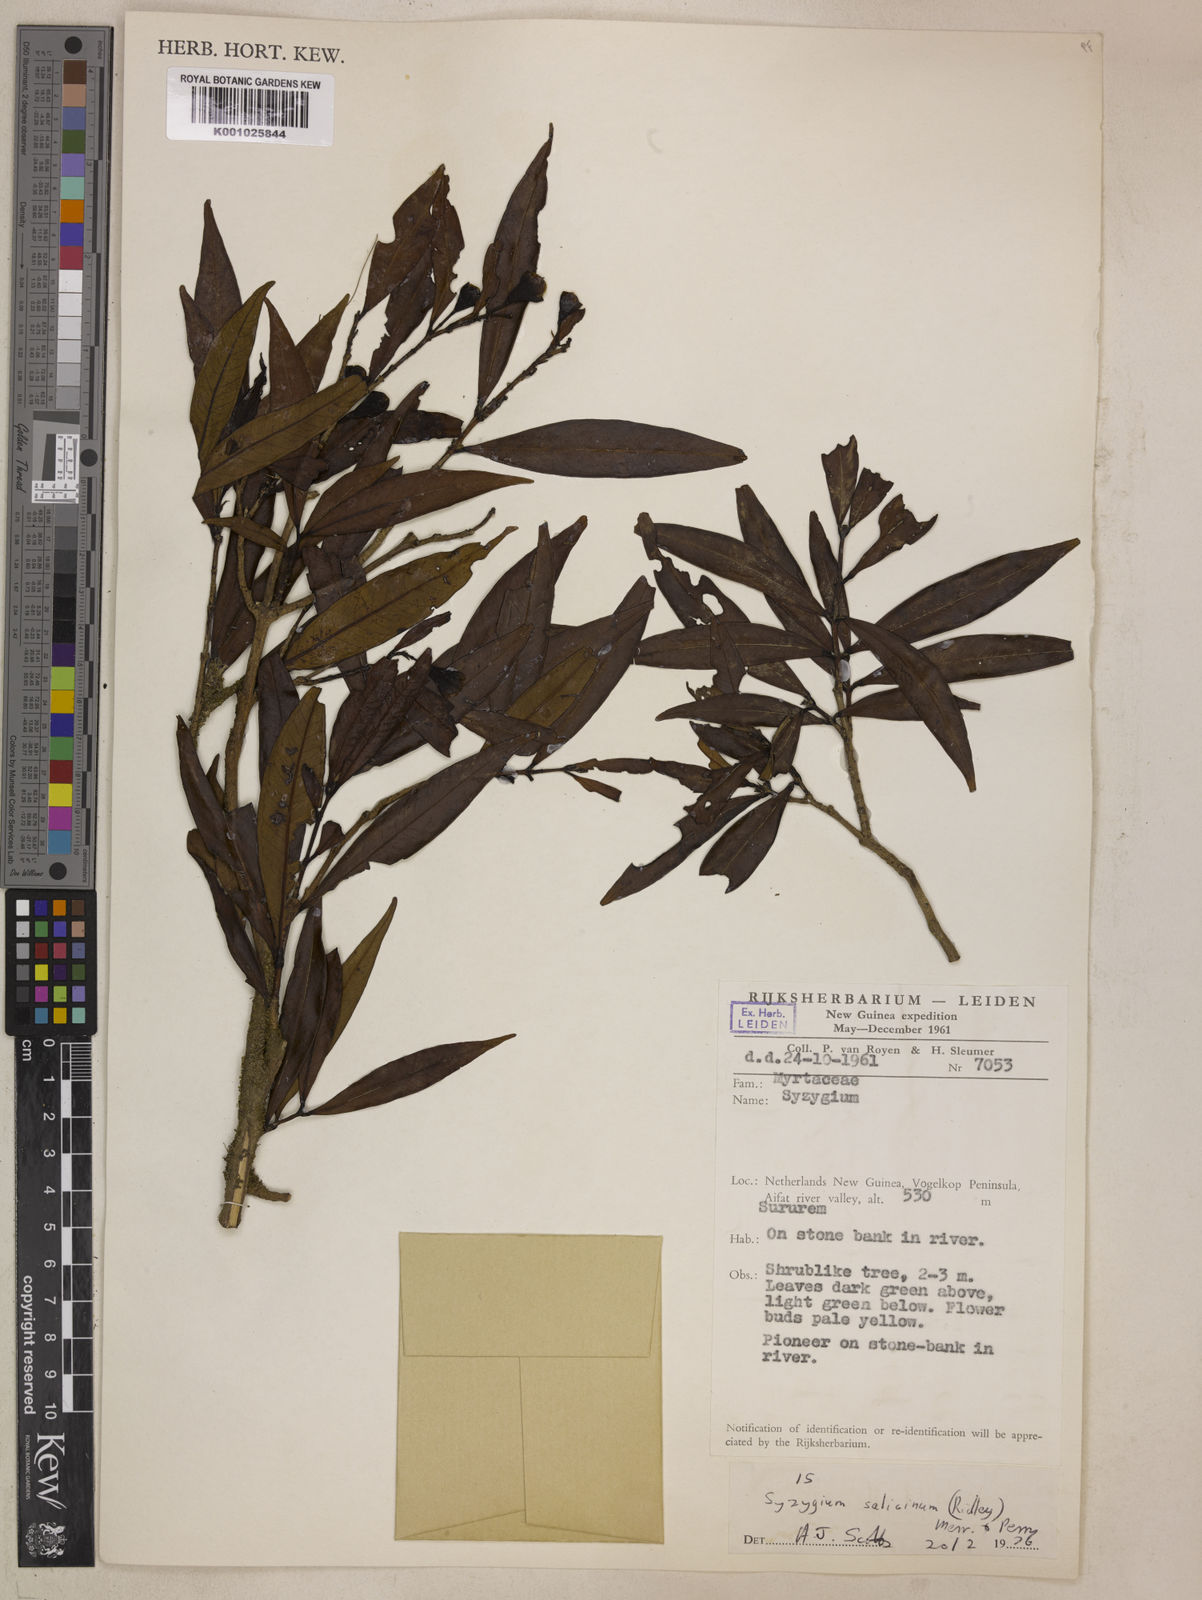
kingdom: Plantae
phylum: Tracheophyta
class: Magnoliopsida
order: Myrtales
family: Myrtaceae
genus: Syzygium
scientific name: Syzygium salicinum
